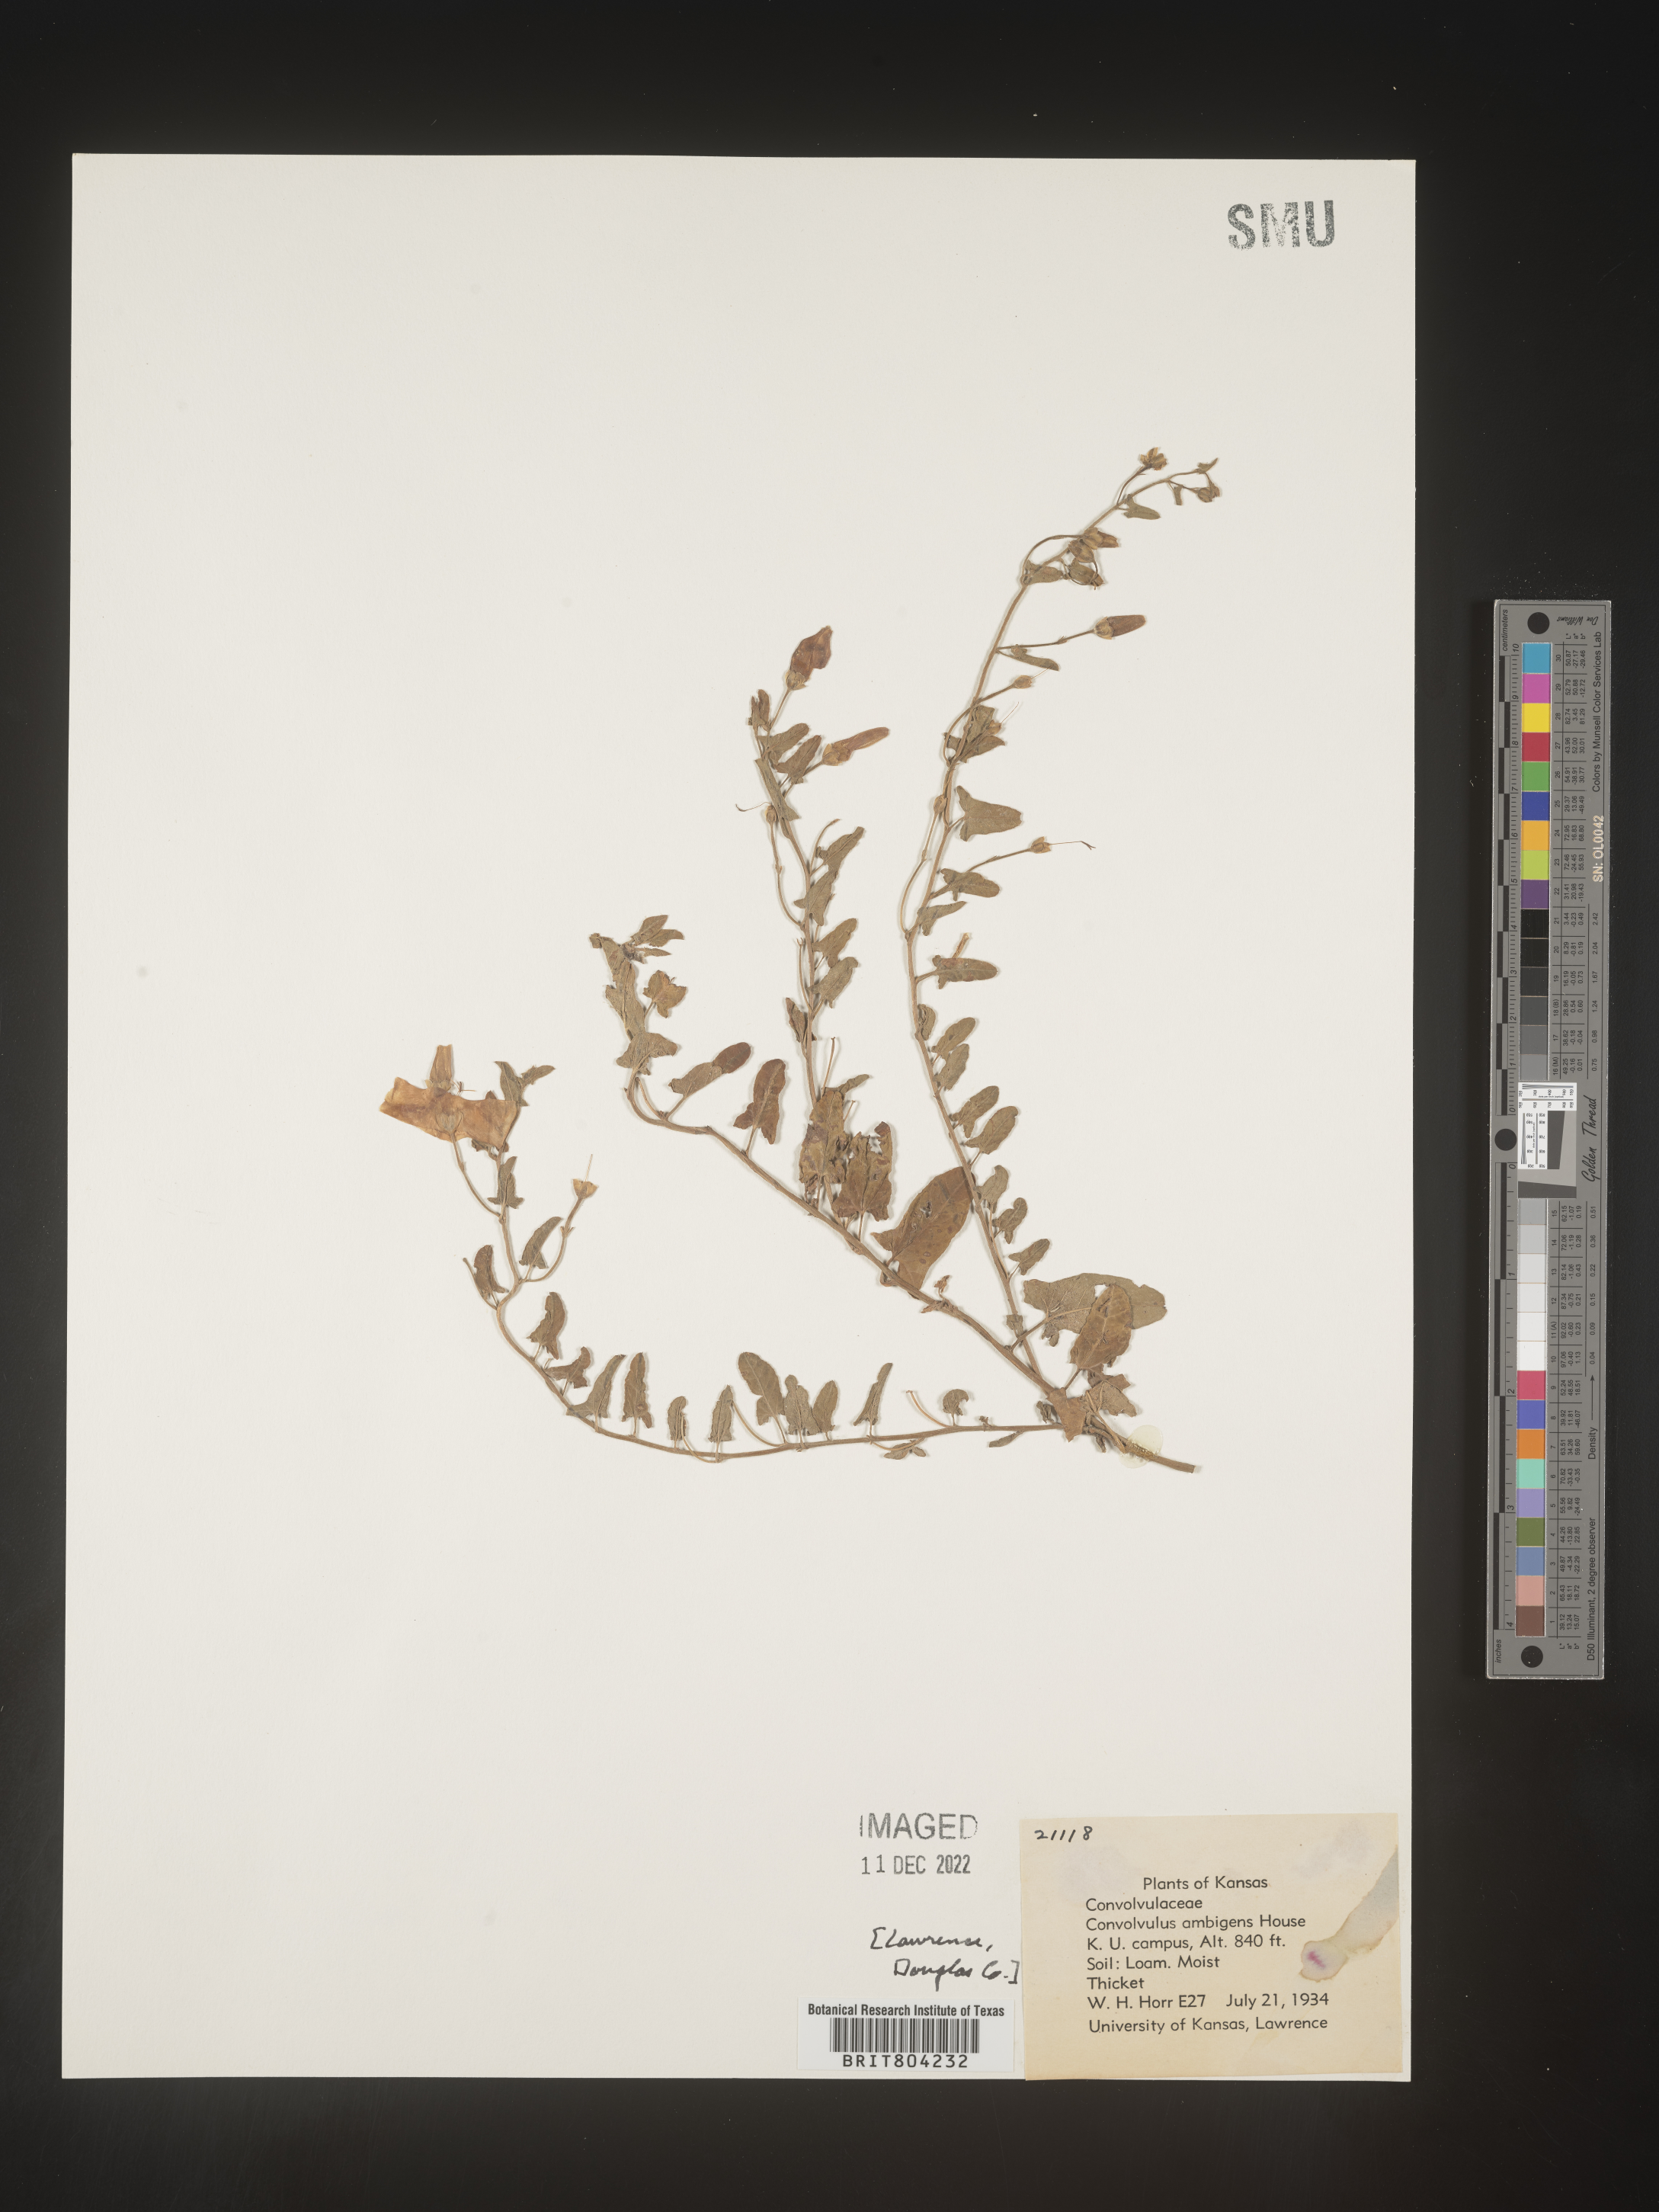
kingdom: Plantae
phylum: Tracheophyta
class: Magnoliopsida
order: Solanales
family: Convolvulaceae
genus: Convolvulus
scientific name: Convolvulus arvensis
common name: Field bindweed
